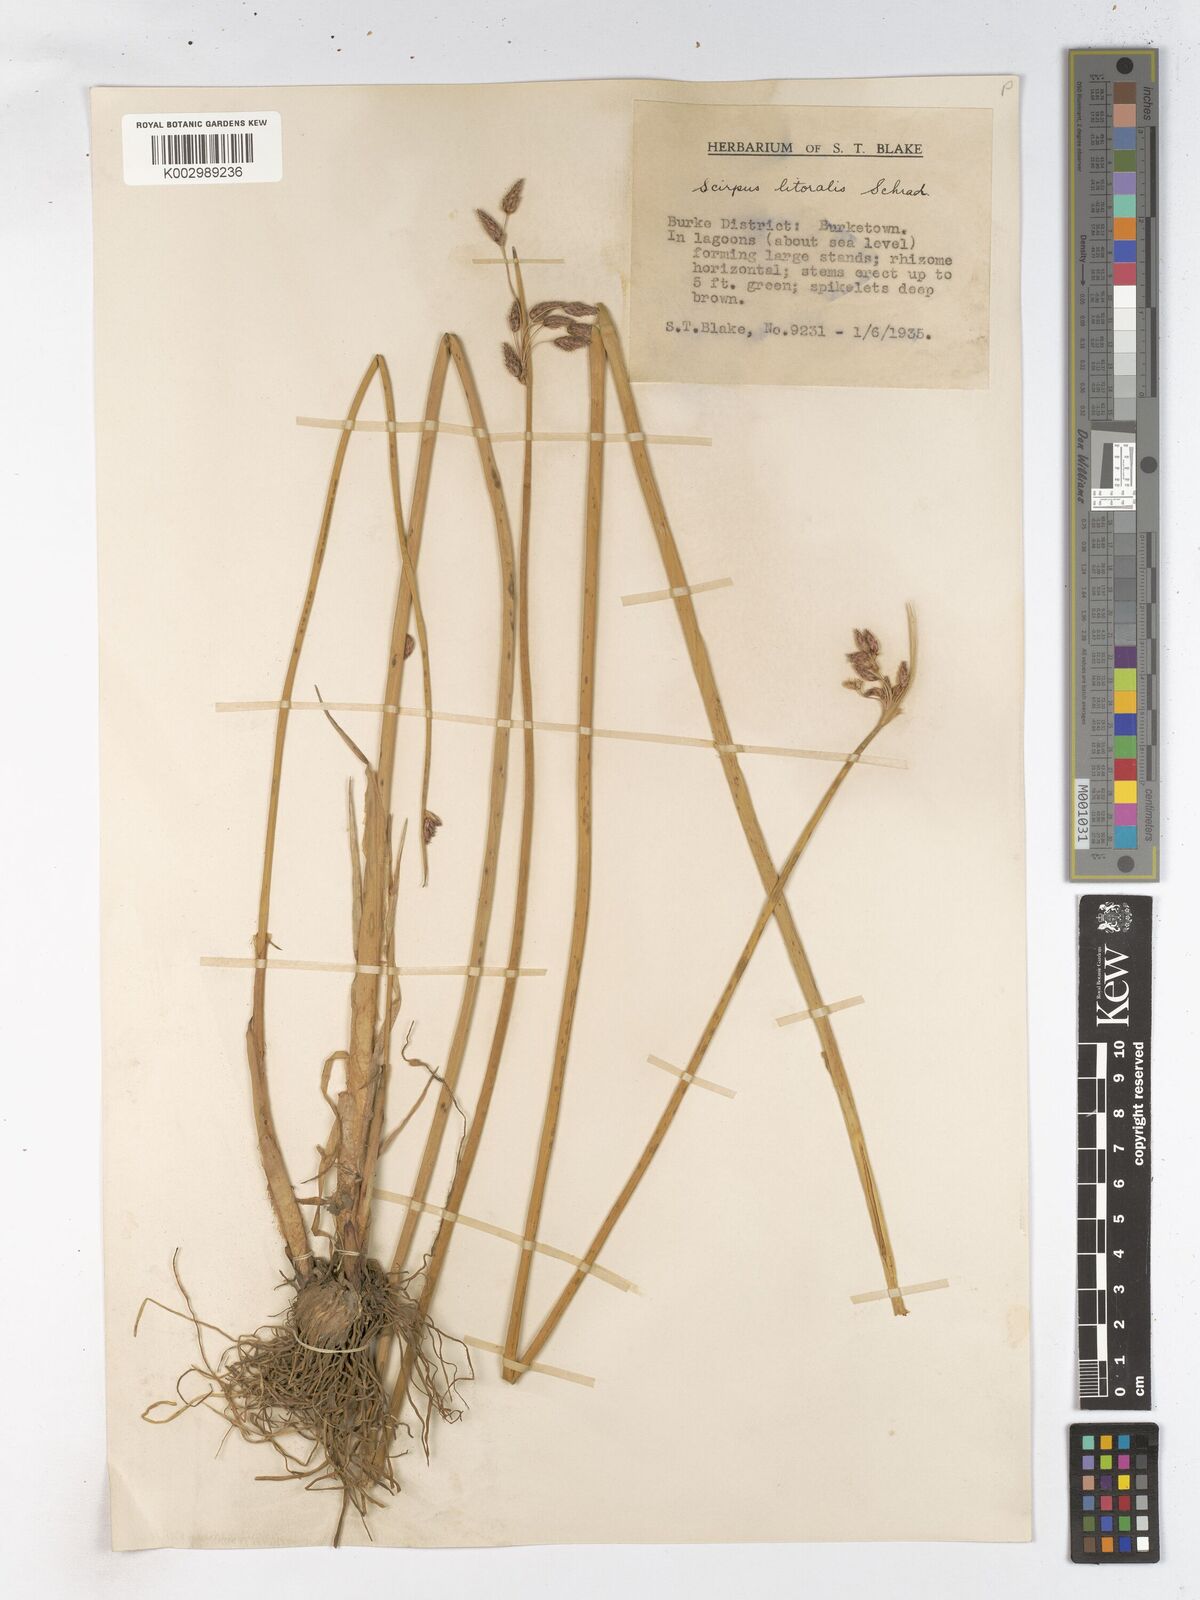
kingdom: Plantae
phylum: Tracheophyta
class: Liliopsida
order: Poales
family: Cyperaceae
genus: Schoenoplectus
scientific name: Schoenoplectus litoralis
